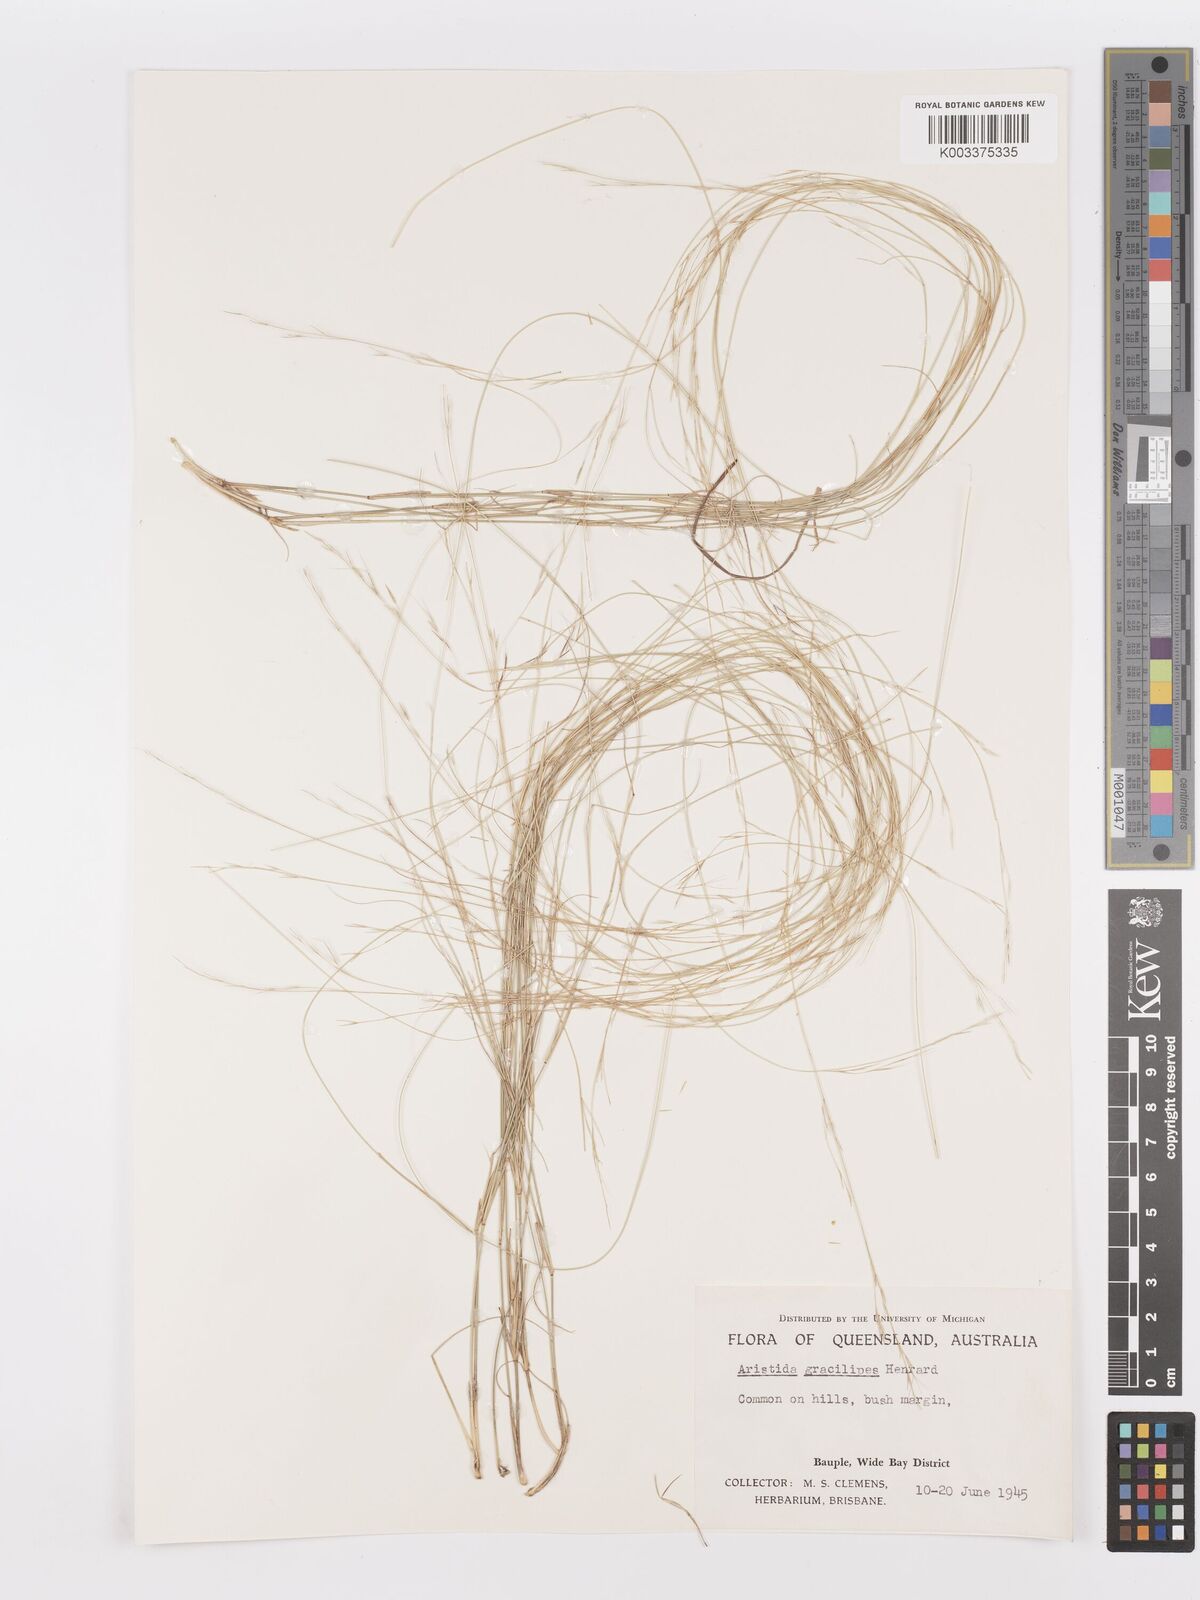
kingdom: Plantae
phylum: Tracheophyta
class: Liliopsida
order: Poales
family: Poaceae
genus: Aristida
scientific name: Aristida gracilipes
